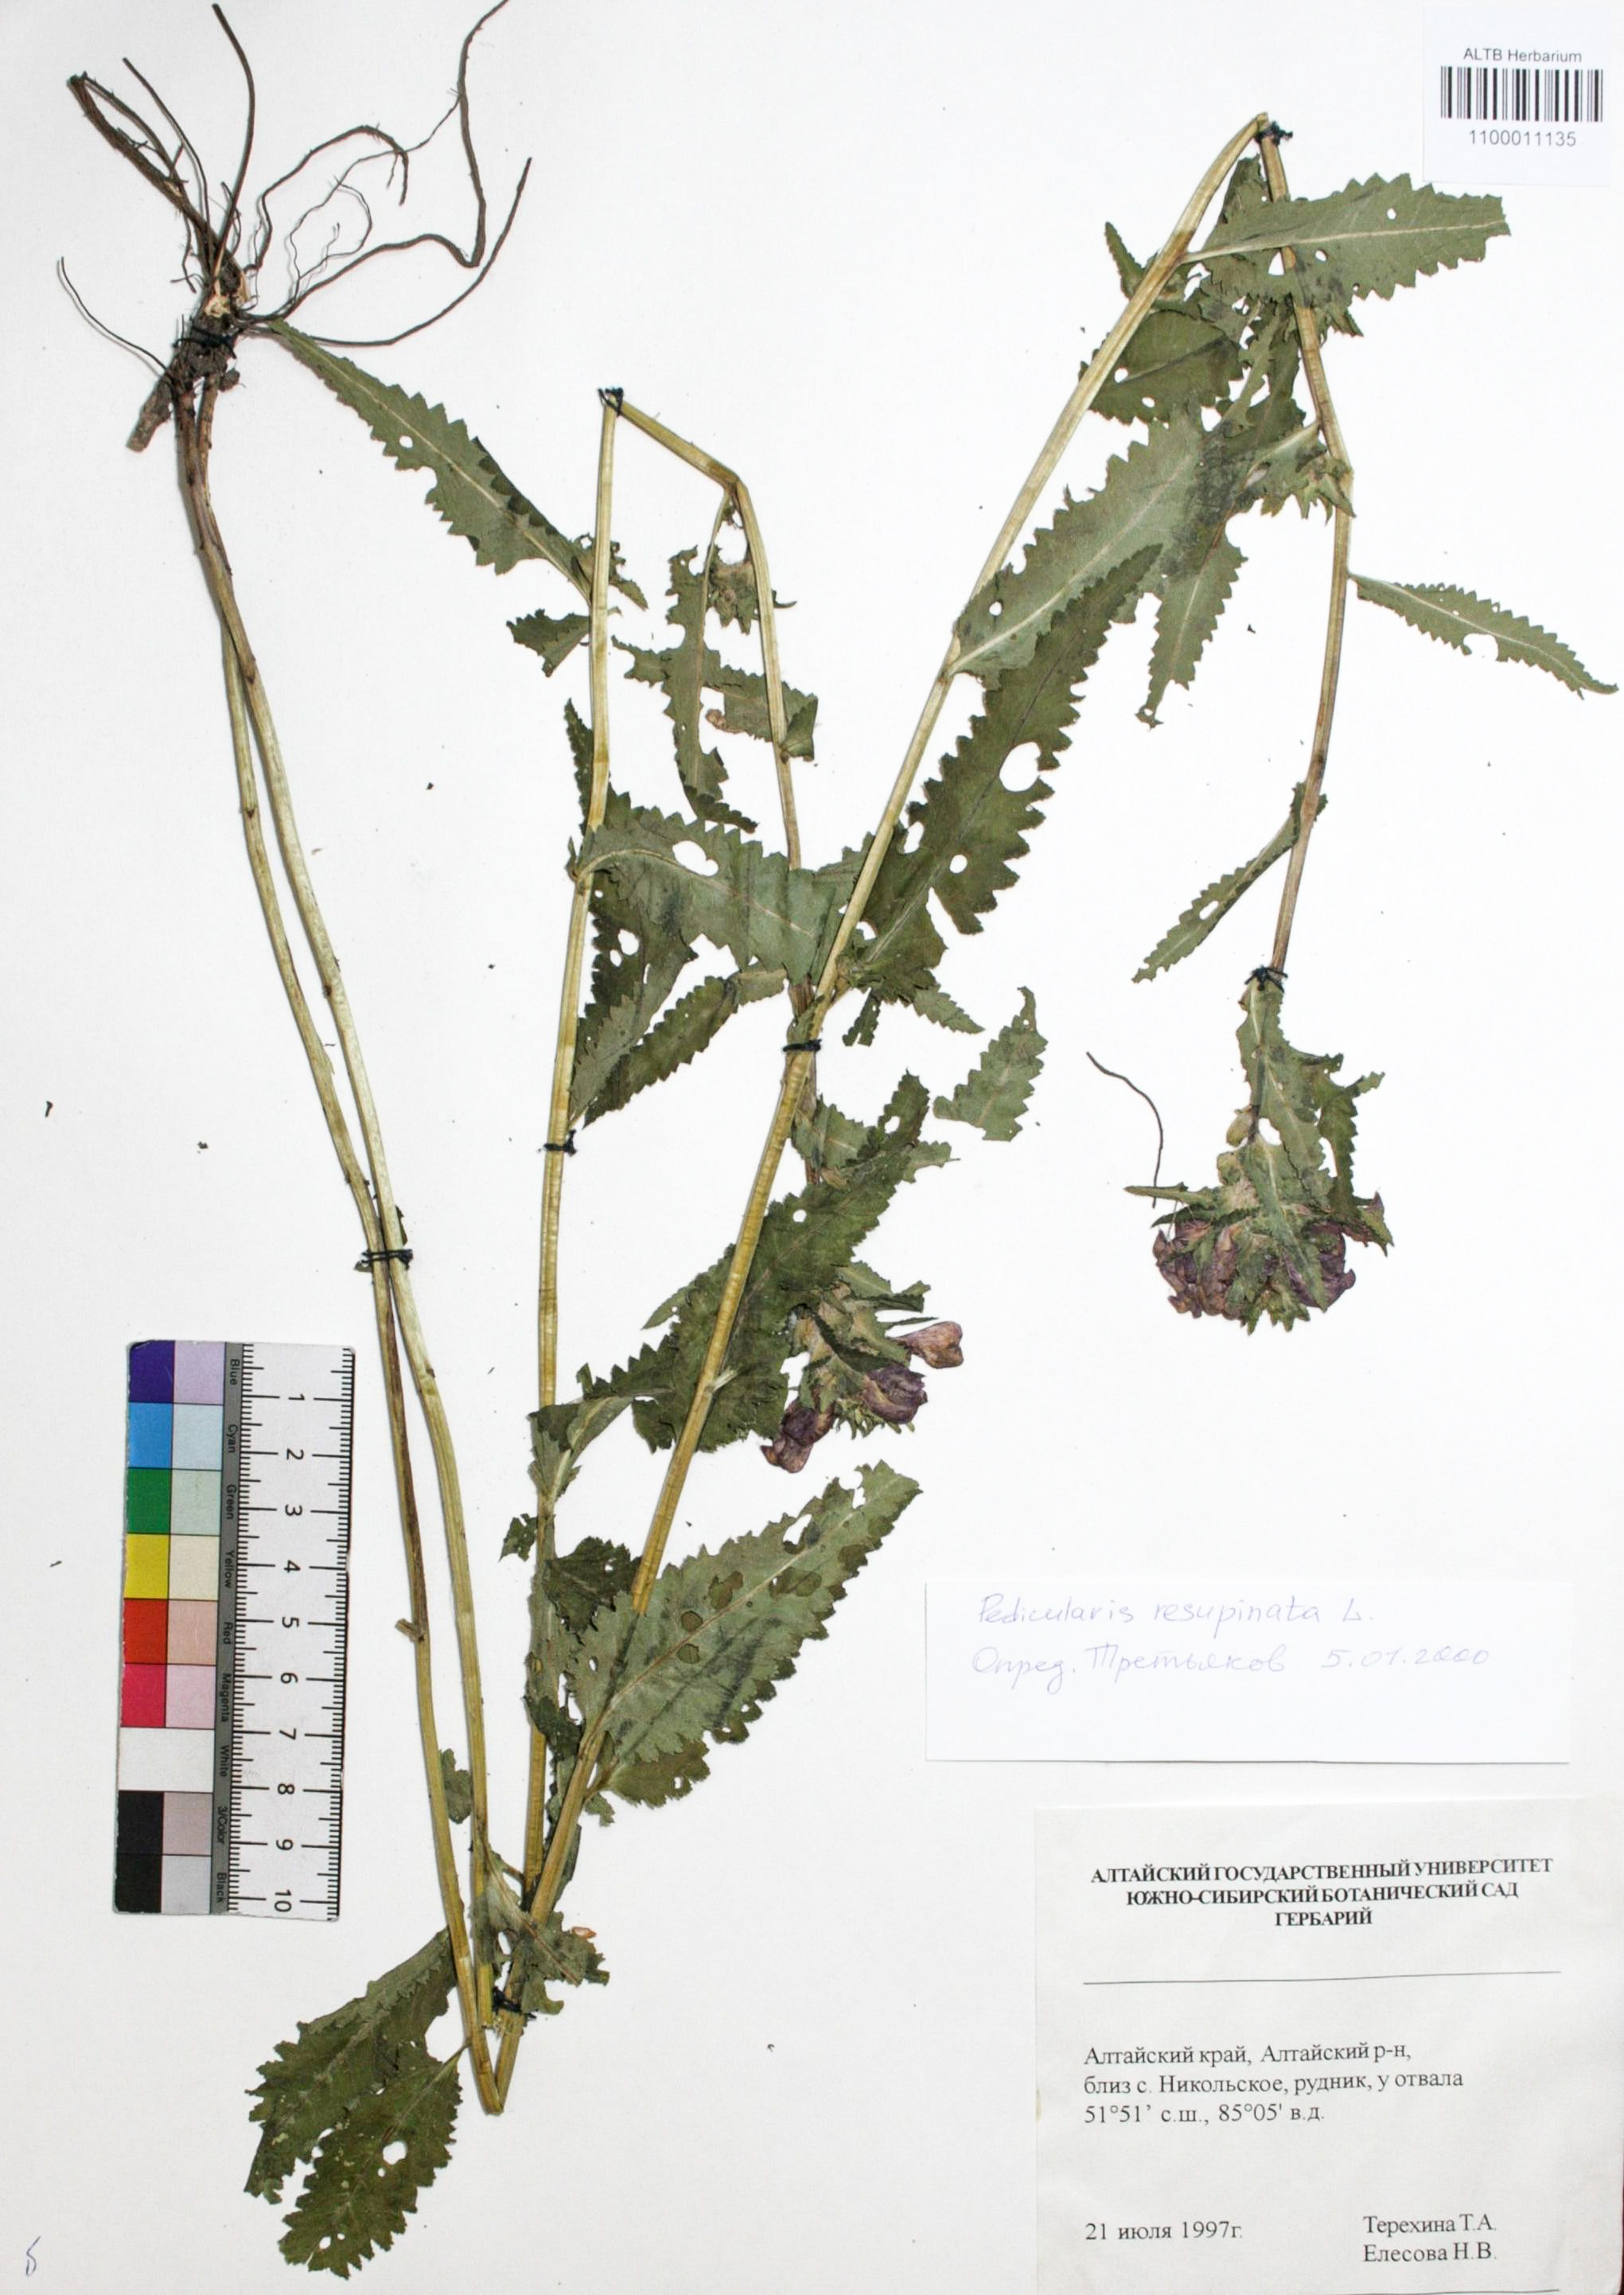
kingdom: Plantae
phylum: Tracheophyta
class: Magnoliopsida
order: Lamiales
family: Orobanchaceae
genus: Pedicularis
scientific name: Pedicularis resupinata
